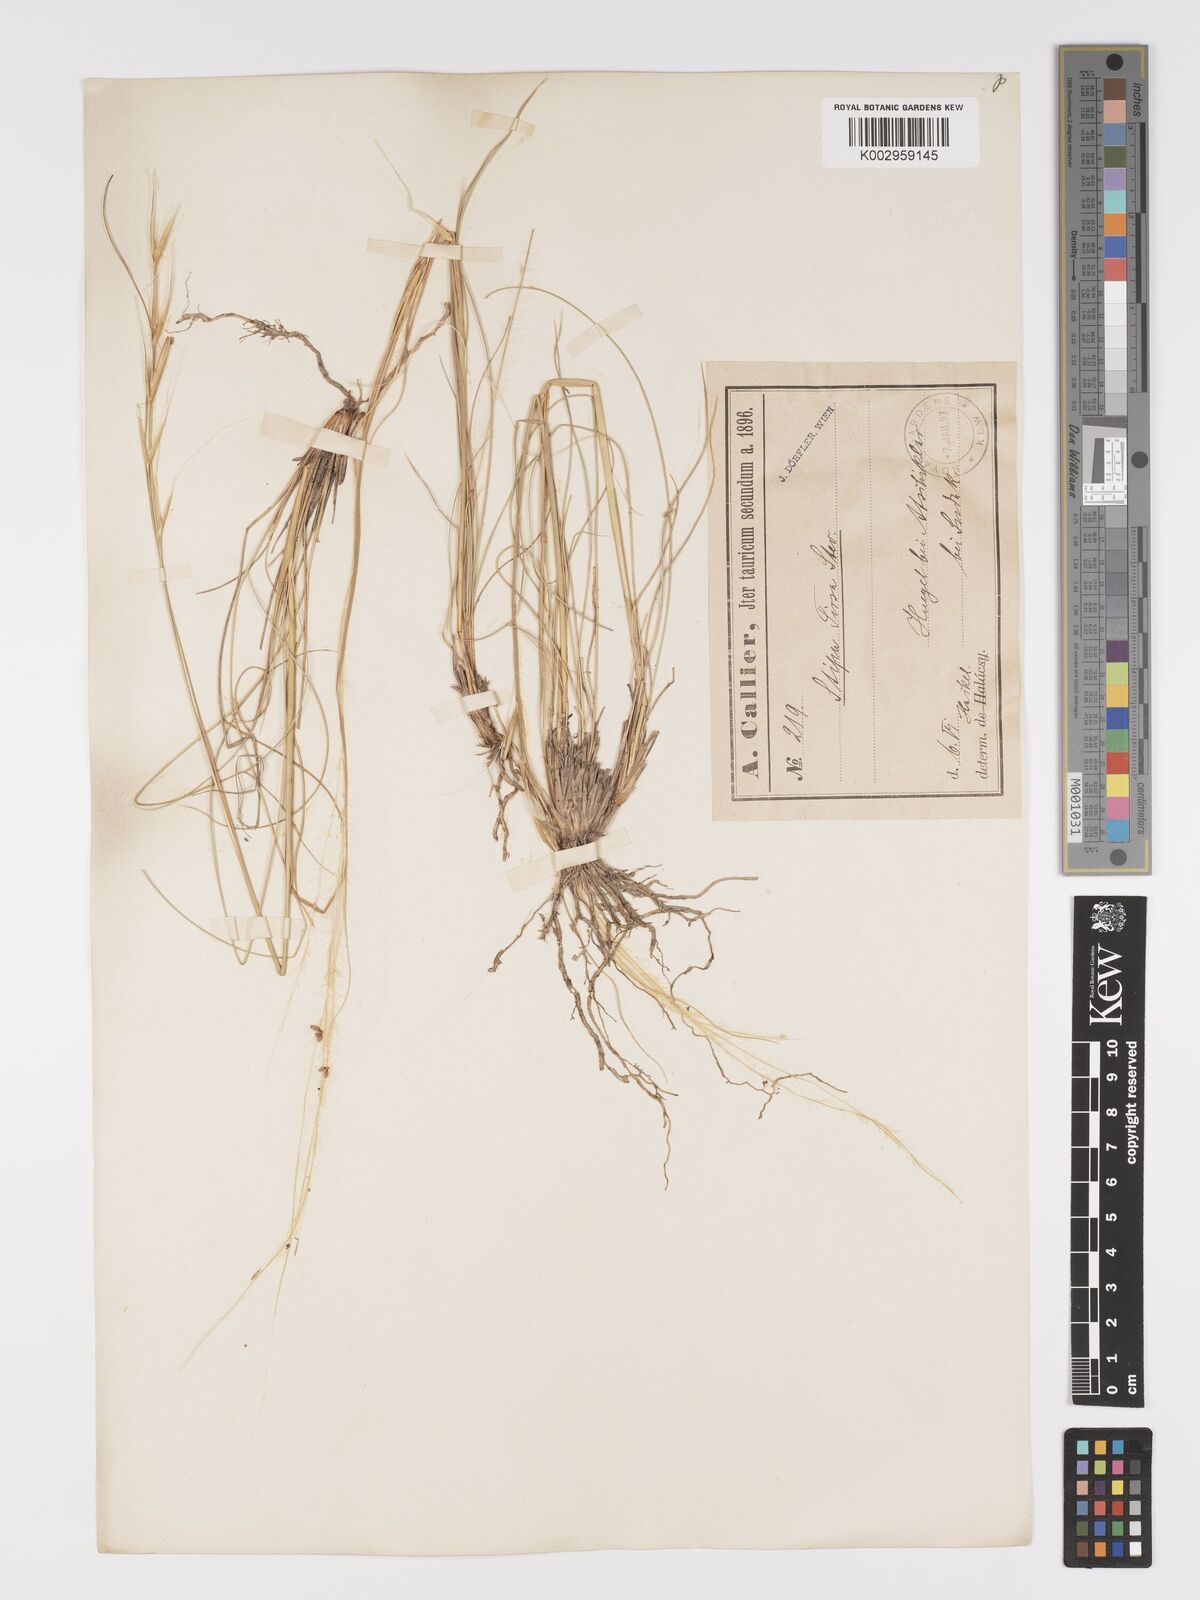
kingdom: Plantae
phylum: Tracheophyta
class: Liliopsida
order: Poales
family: Poaceae
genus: Stipa
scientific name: Stipa pennata
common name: European feather grass
